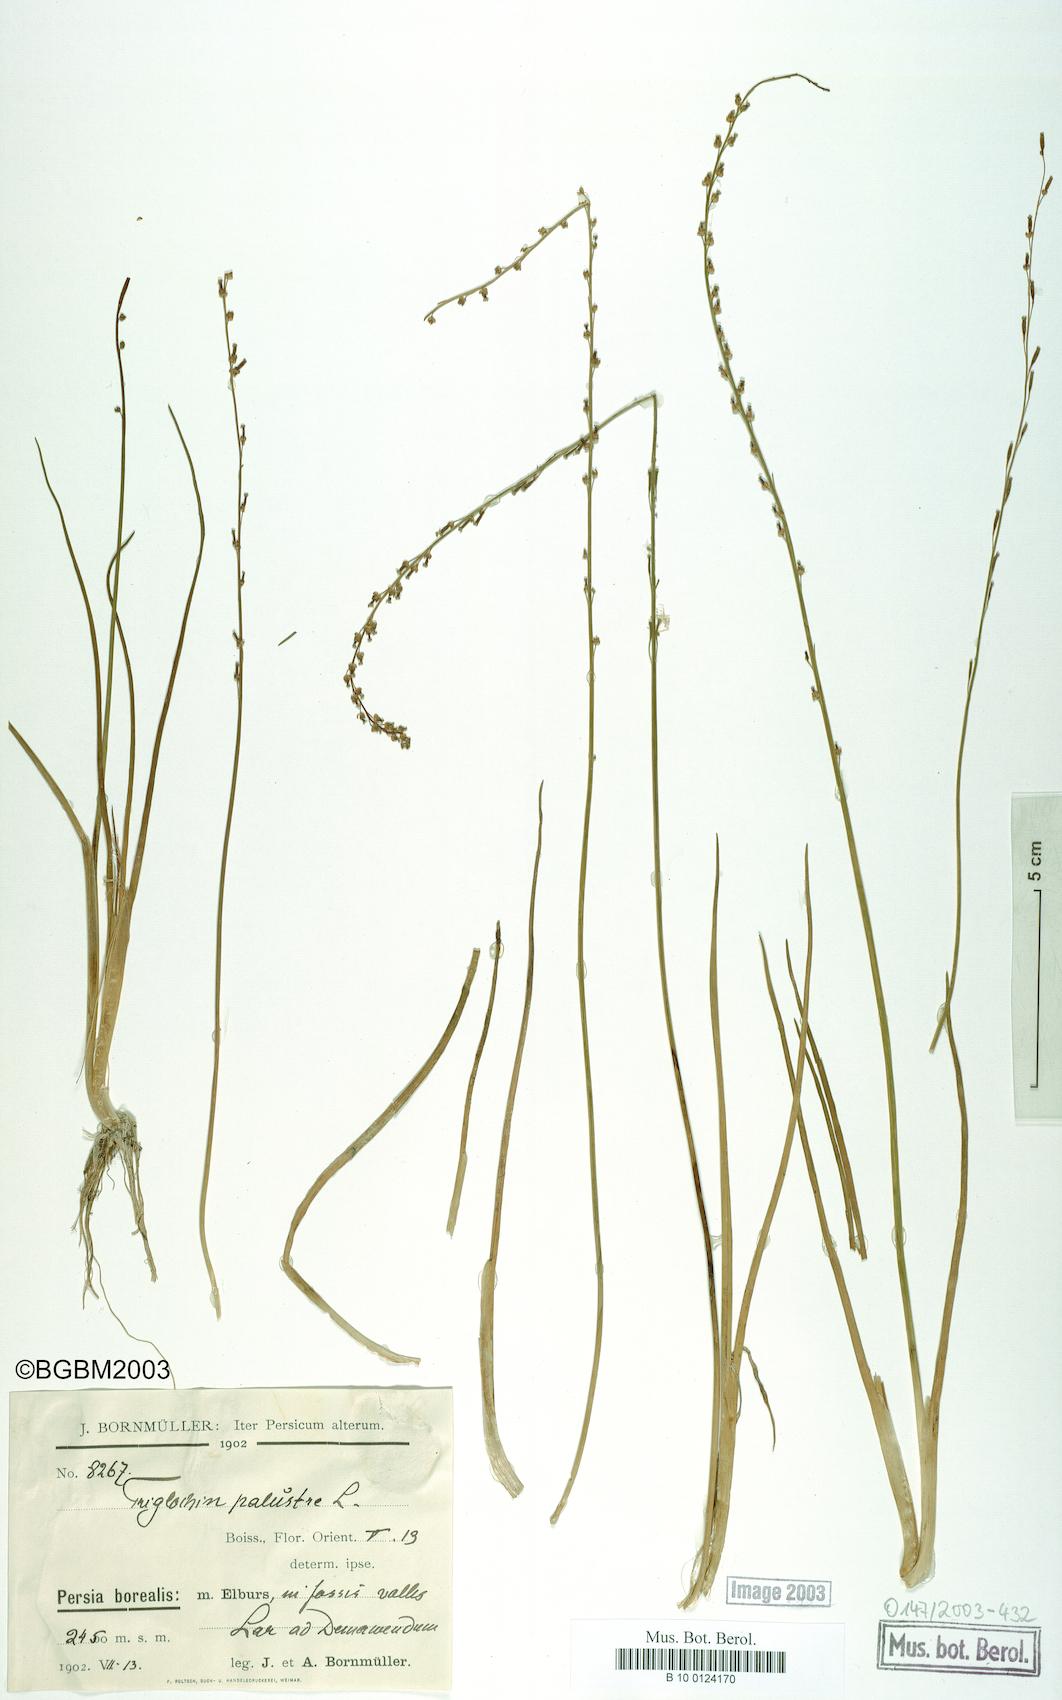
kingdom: Plantae
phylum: Tracheophyta
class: Liliopsida
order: Alismatales
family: Juncaginaceae
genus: Triglochin
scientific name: Triglochin palustris
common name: Marsh arrowgrass
